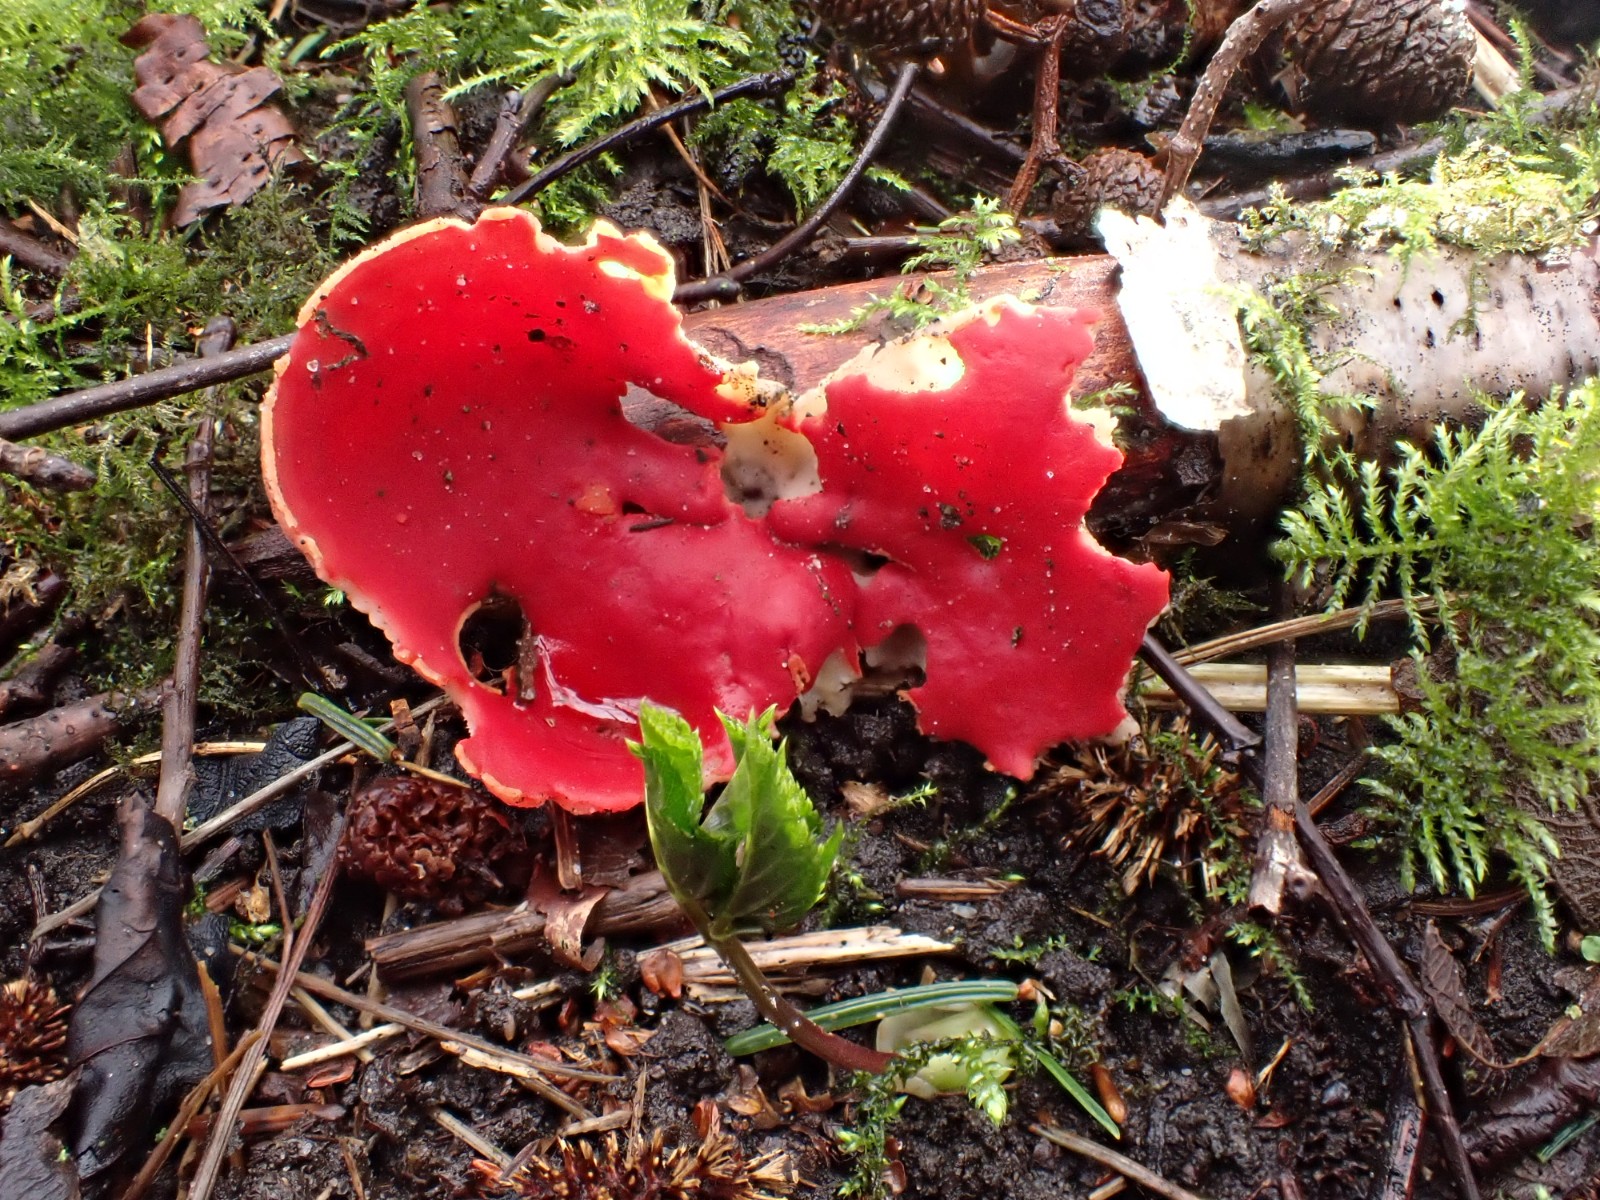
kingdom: Fungi
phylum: Ascomycota
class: Pezizomycetes
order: Pezizales
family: Sarcoscyphaceae
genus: Sarcoscypha
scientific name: Sarcoscypha austriaca
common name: krølhåret pragtbæger
